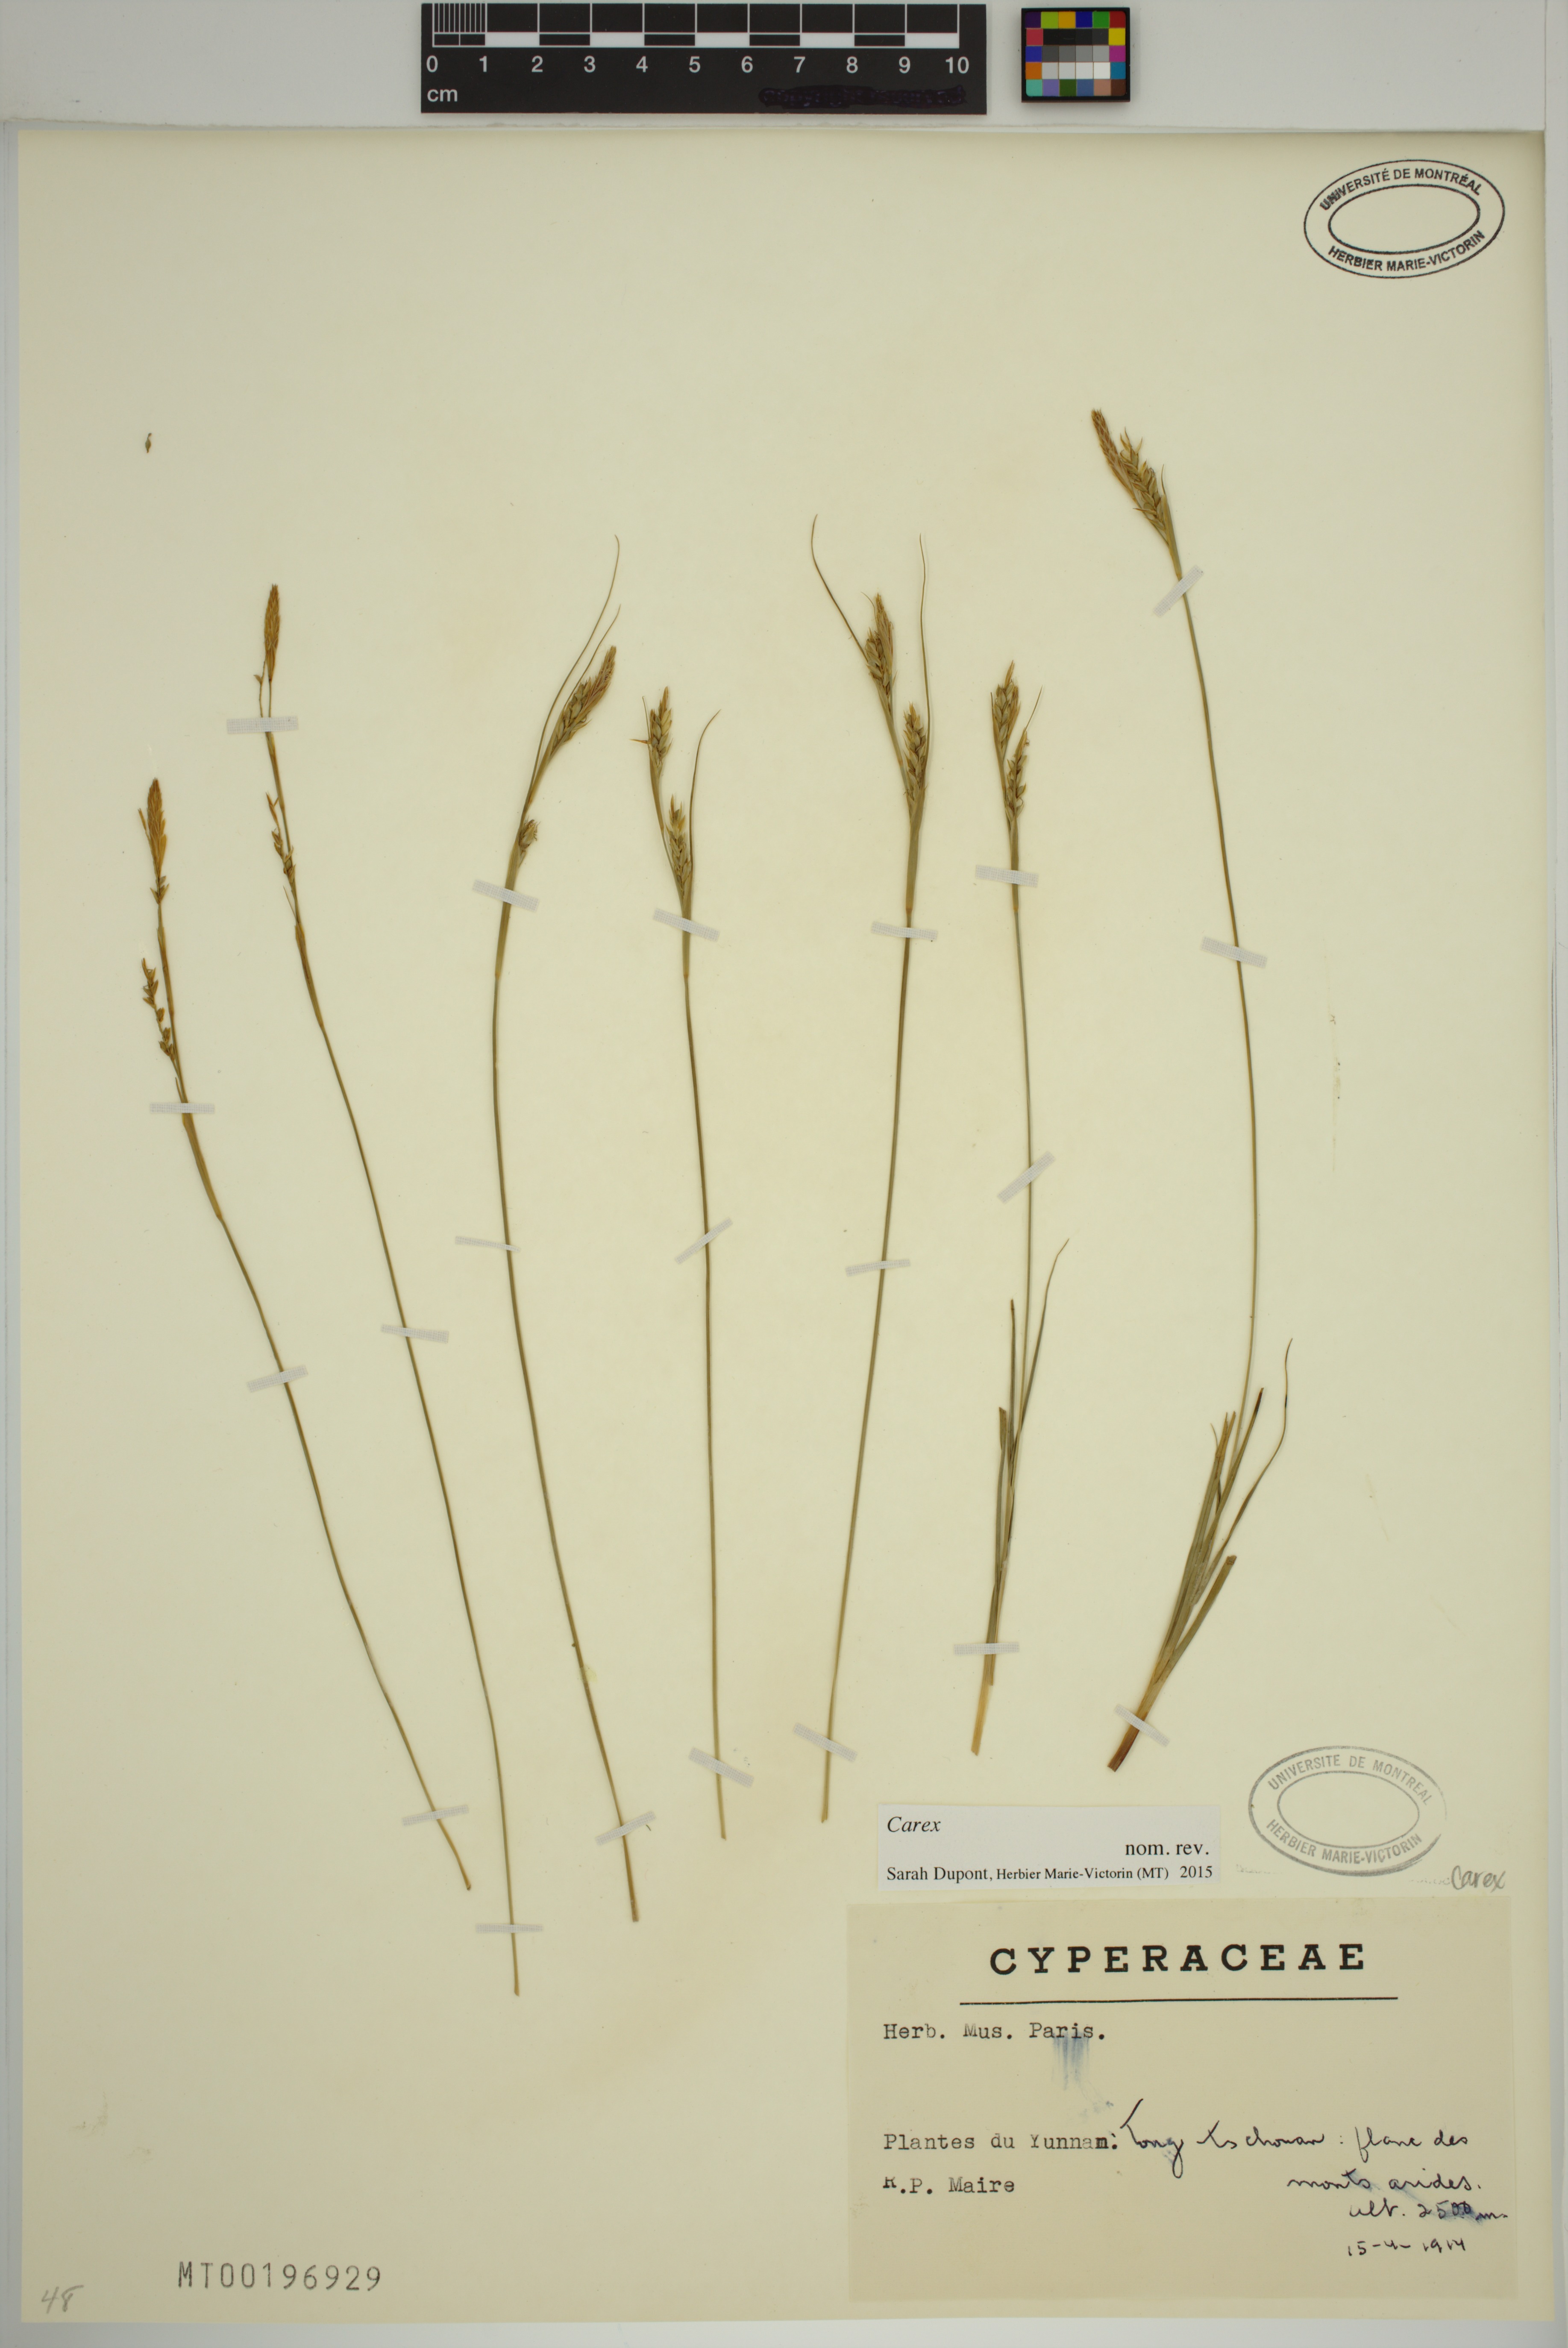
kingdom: Plantae
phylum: Tracheophyta
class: Liliopsida
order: Poales
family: Cyperaceae
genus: Carex
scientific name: Carex
